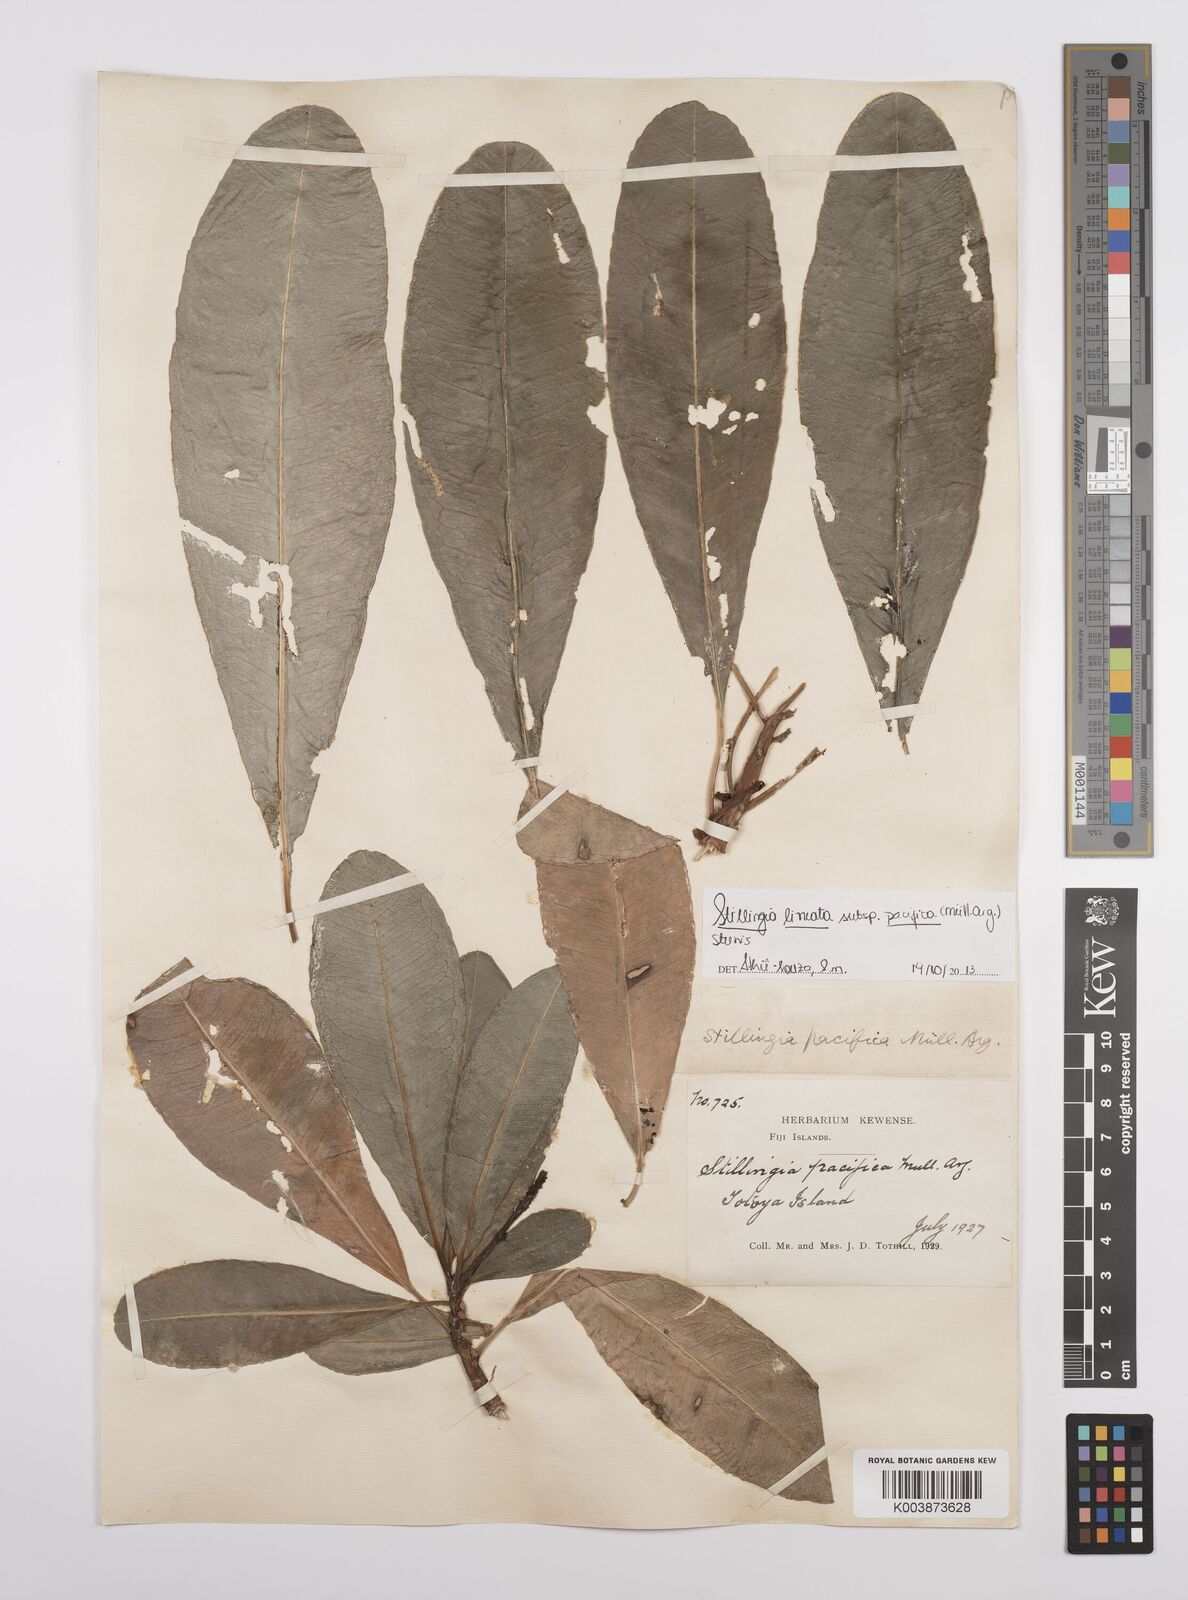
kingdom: Plantae
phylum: Tracheophyta
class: Magnoliopsida
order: Malpighiales
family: Euphorbiaceae
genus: Stillingia
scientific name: Stillingia lineata
